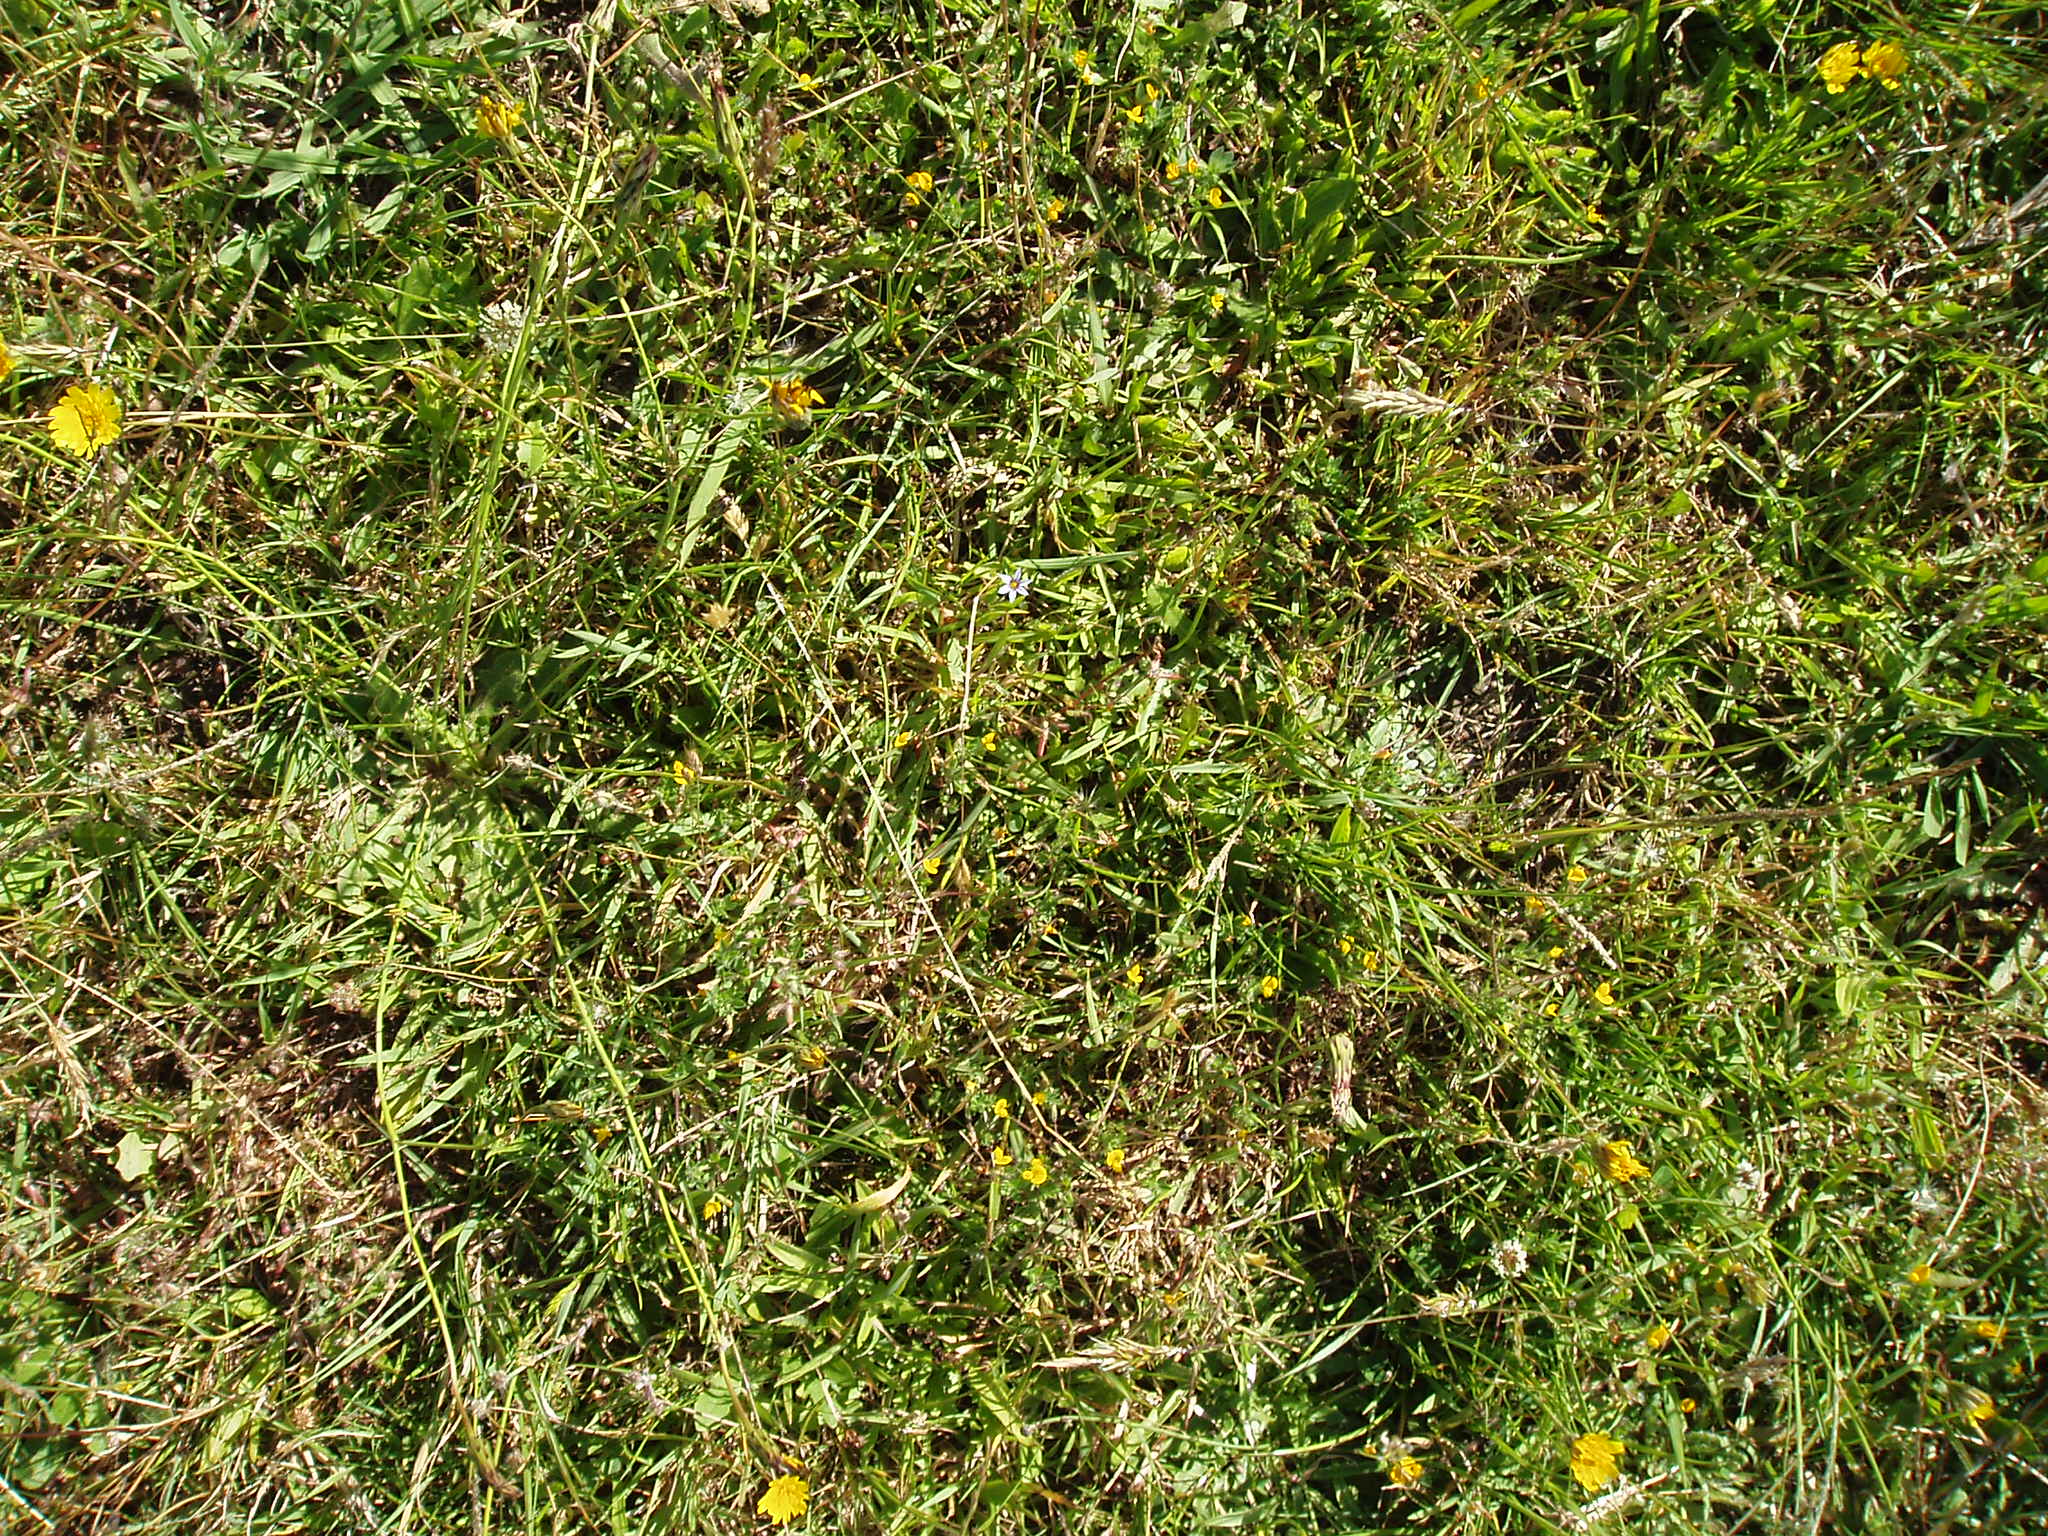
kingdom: Plantae
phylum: Tracheophyta
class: Liliopsida
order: Asparagales
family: Iridaceae
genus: Sisyrinchium
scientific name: Sisyrinchium rosulatum
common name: Annual blue-eyed grass
